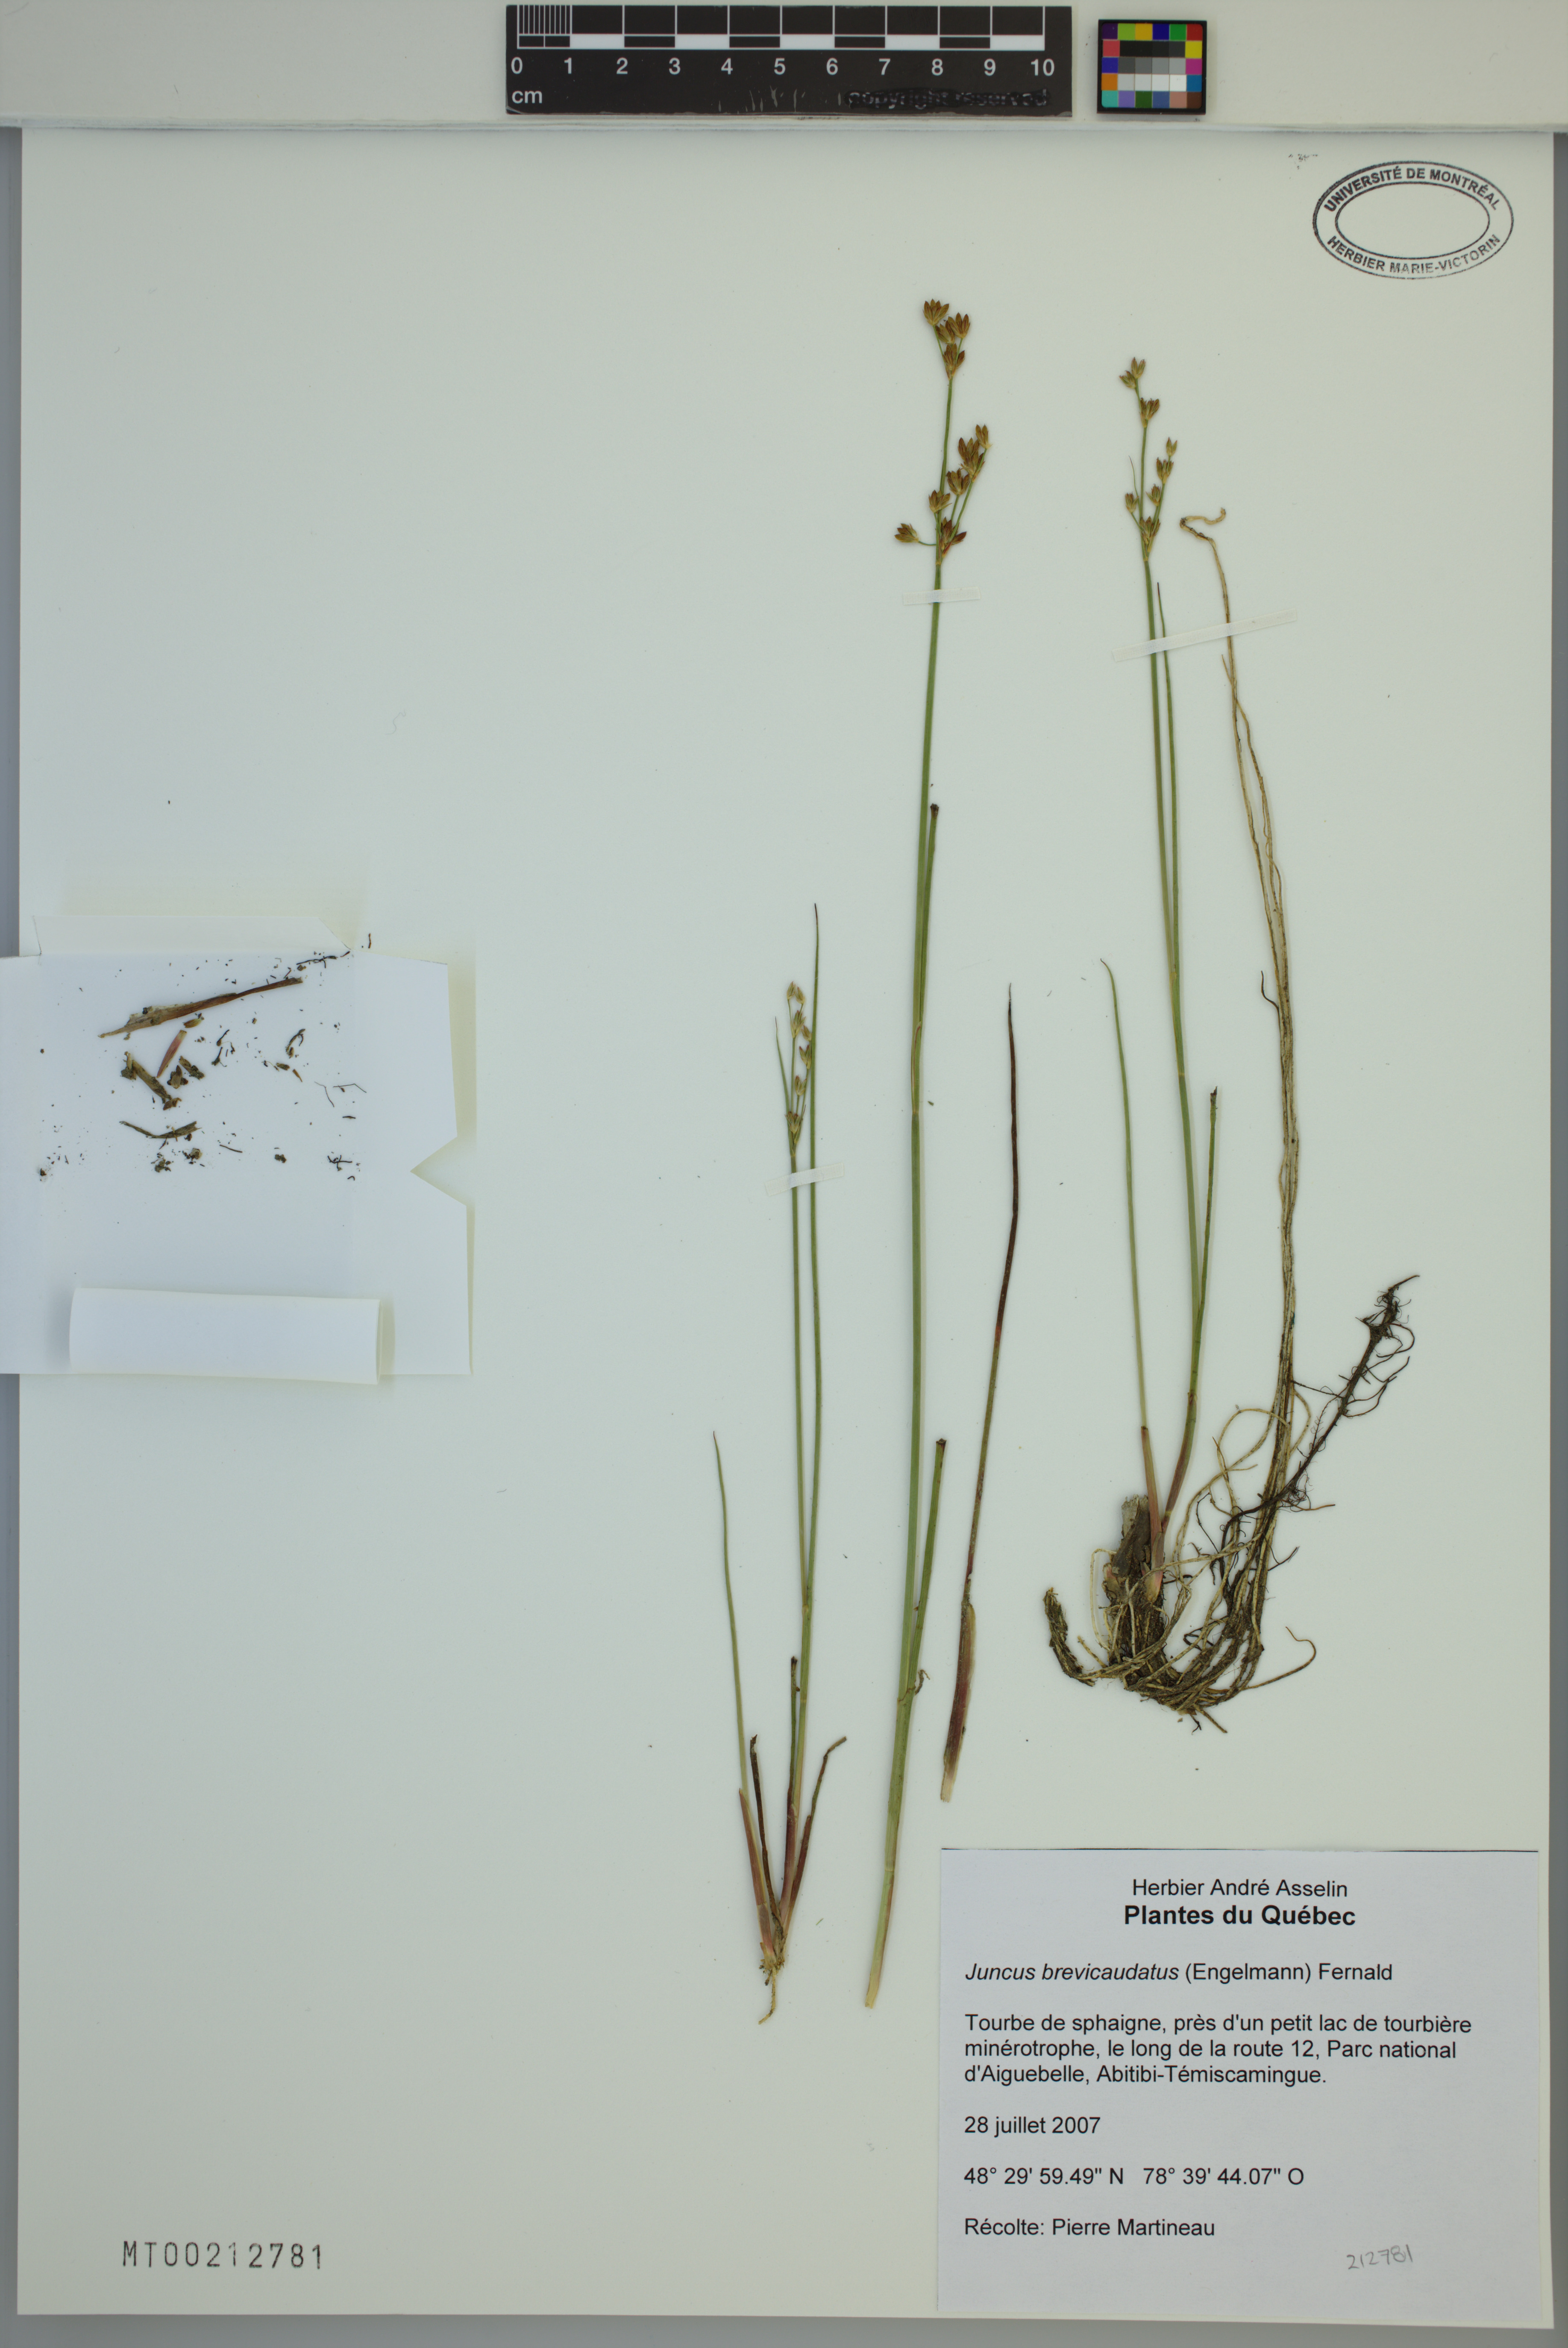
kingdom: Plantae
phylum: Tracheophyta
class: Liliopsida
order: Poales
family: Juncaceae
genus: Juncus
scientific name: Juncus brevicaudatus
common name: Narrow-panicle rush
